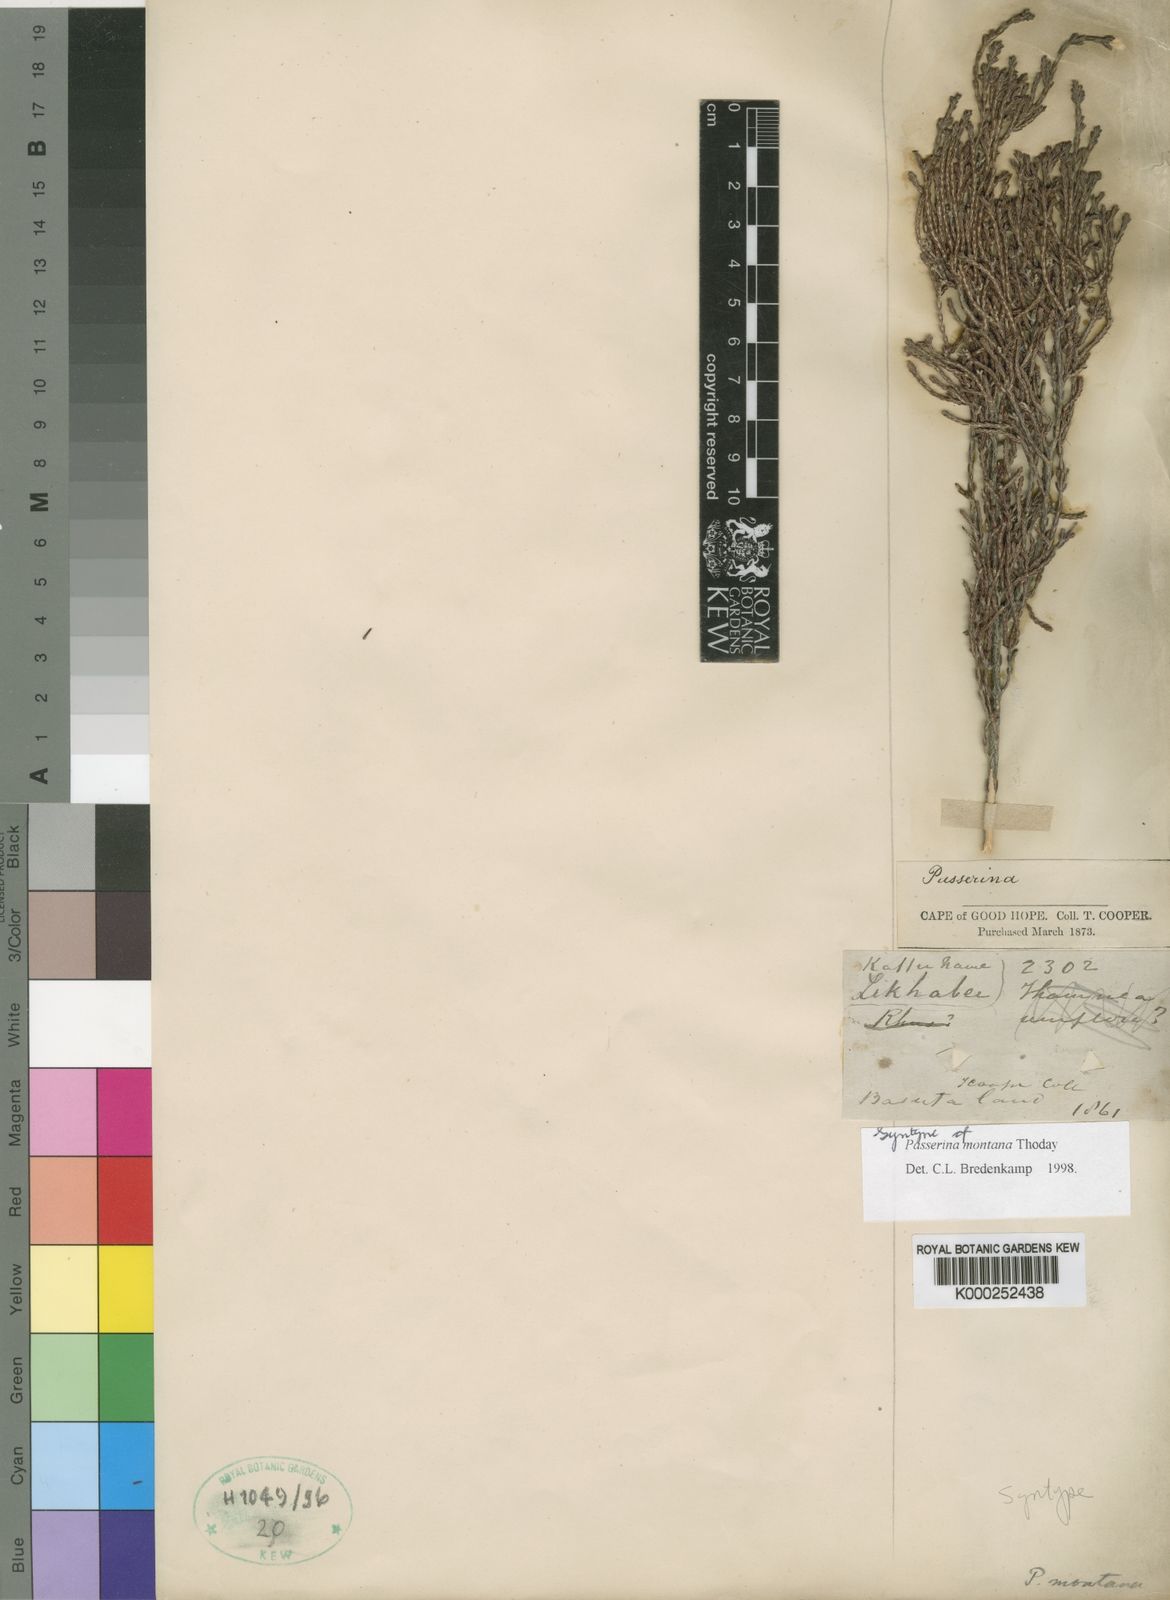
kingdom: Plantae
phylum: Tracheophyta
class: Magnoliopsida
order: Malvales
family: Thymelaeaceae
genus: Passerina
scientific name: Passerina montana
